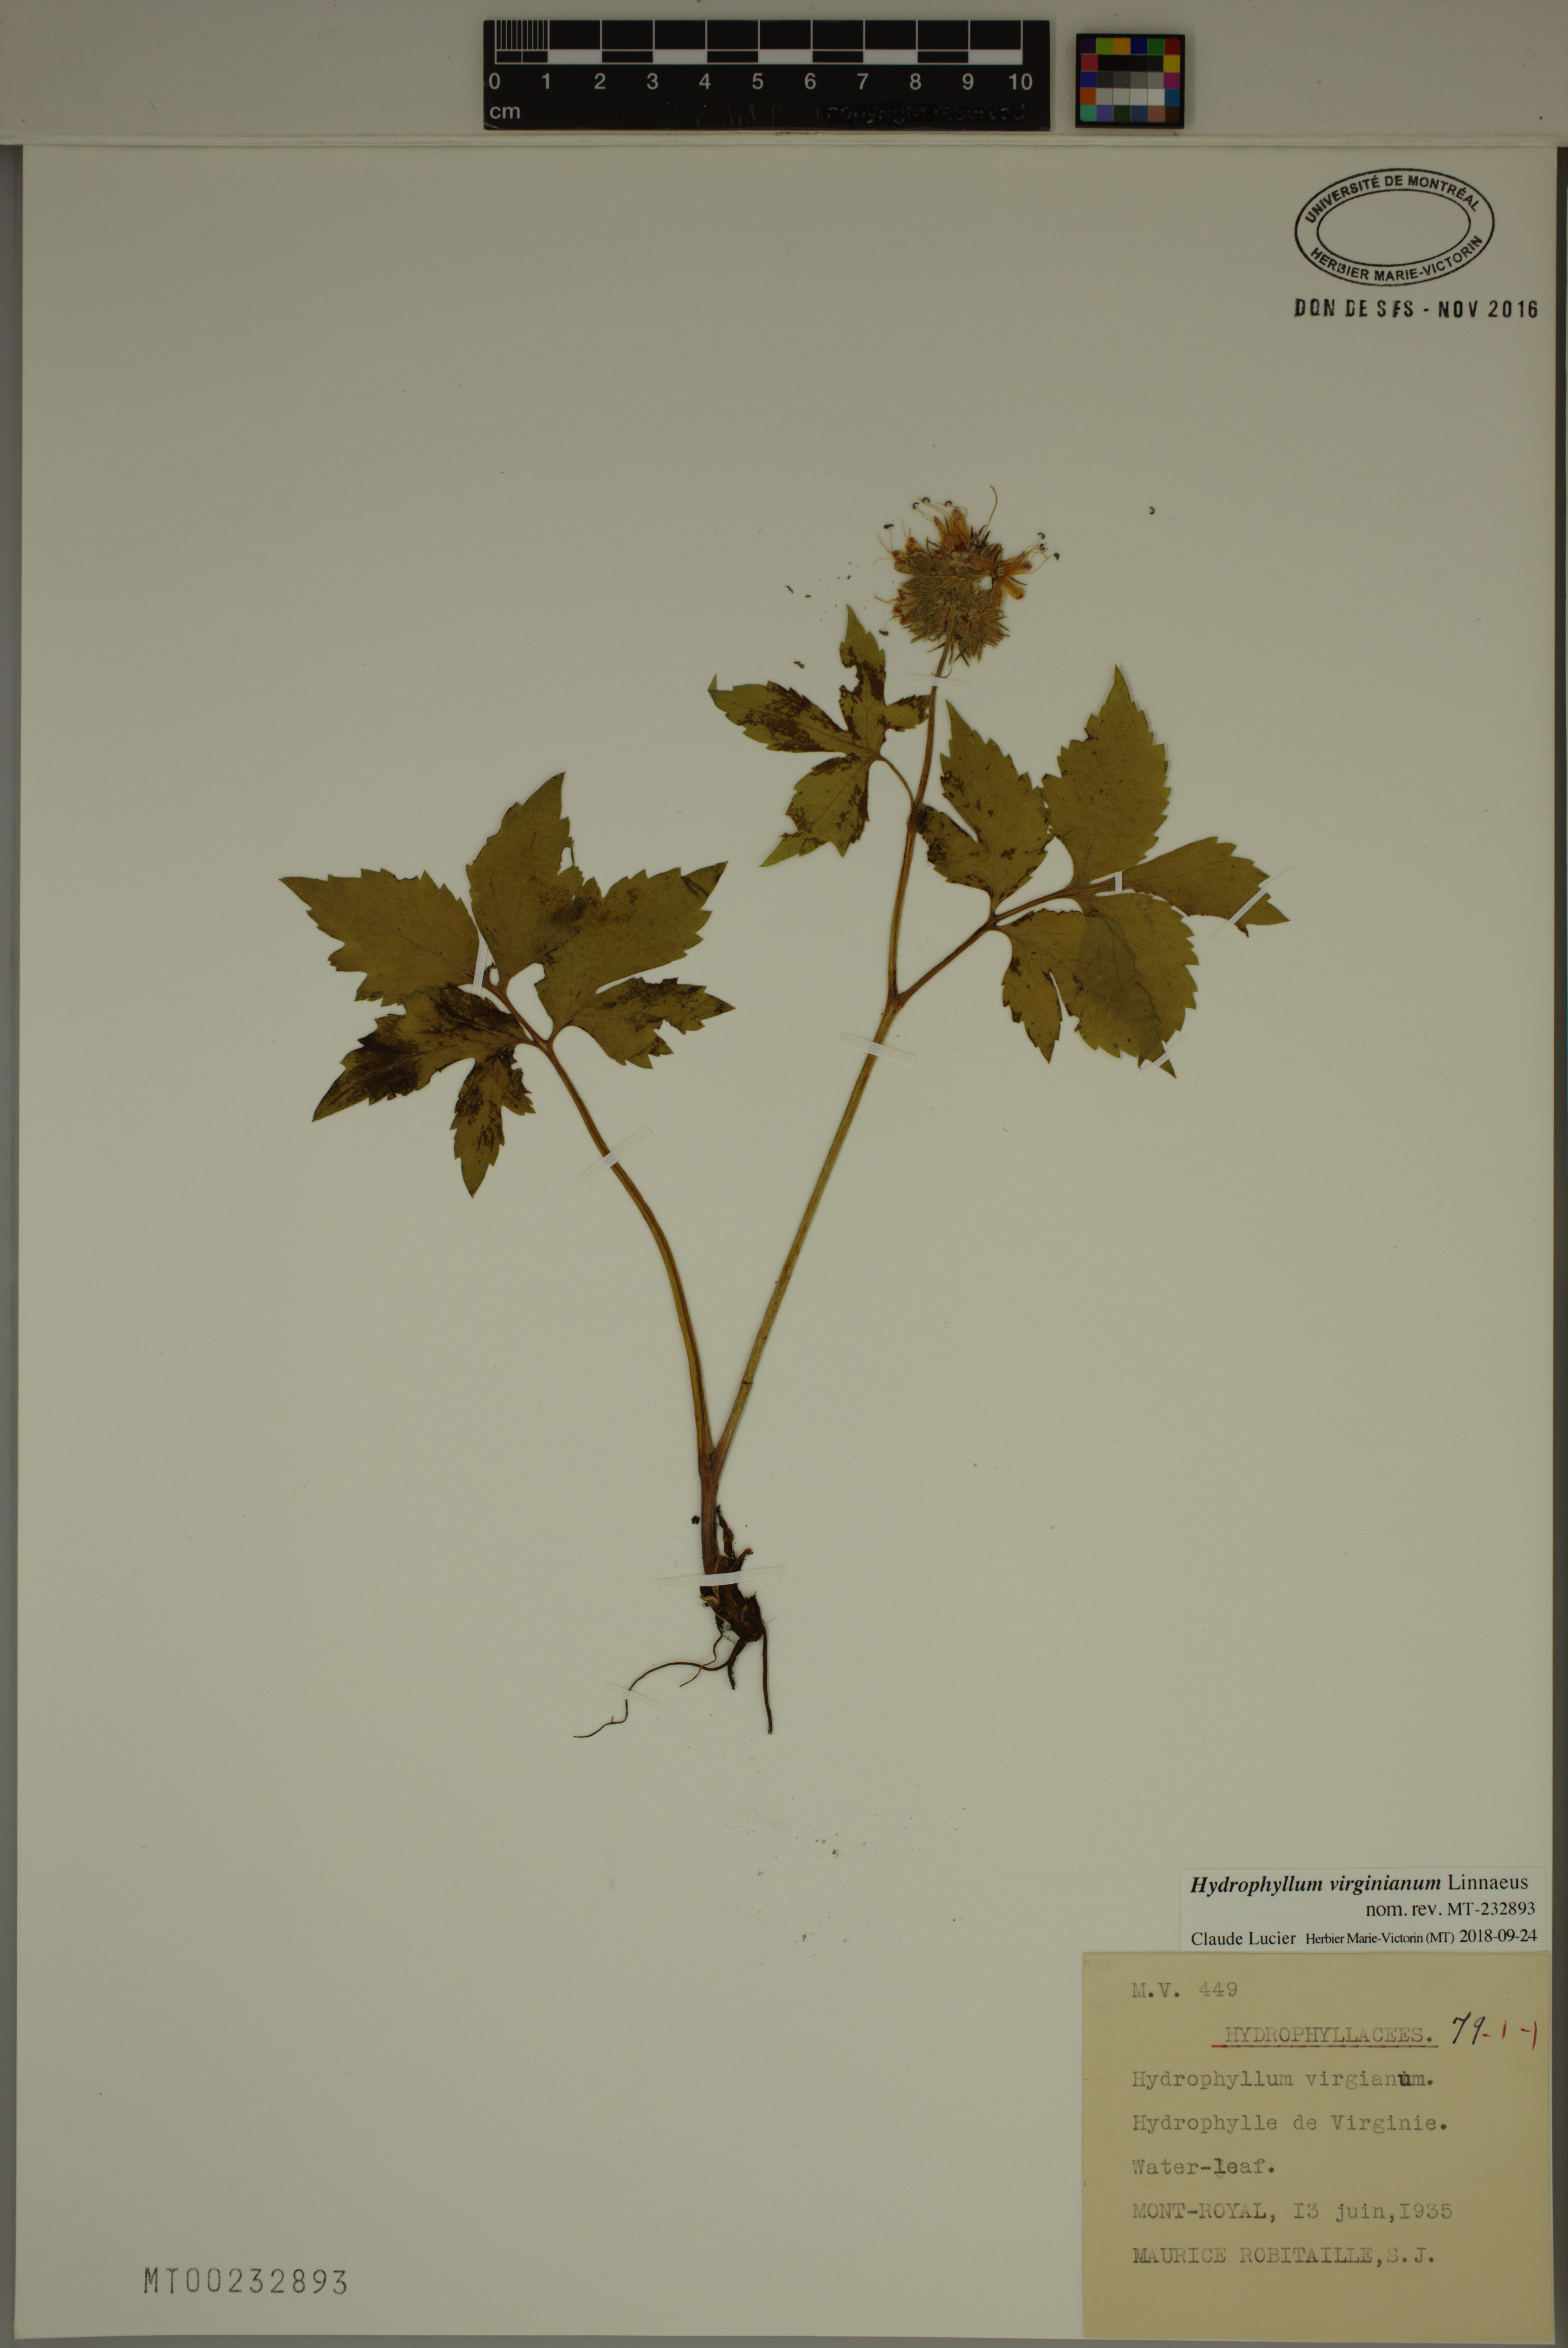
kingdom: Plantae
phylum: Tracheophyta
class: Magnoliopsida
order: Boraginales
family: Hydrophyllaceae
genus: Hydrophyllum
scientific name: Hydrophyllum virginianum
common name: Virginia waterleaf
